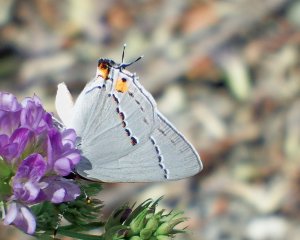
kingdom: Animalia
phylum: Arthropoda
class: Insecta
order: Lepidoptera
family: Lycaenidae
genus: Strymon
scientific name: Strymon melinus
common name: Gray Hairstreak
